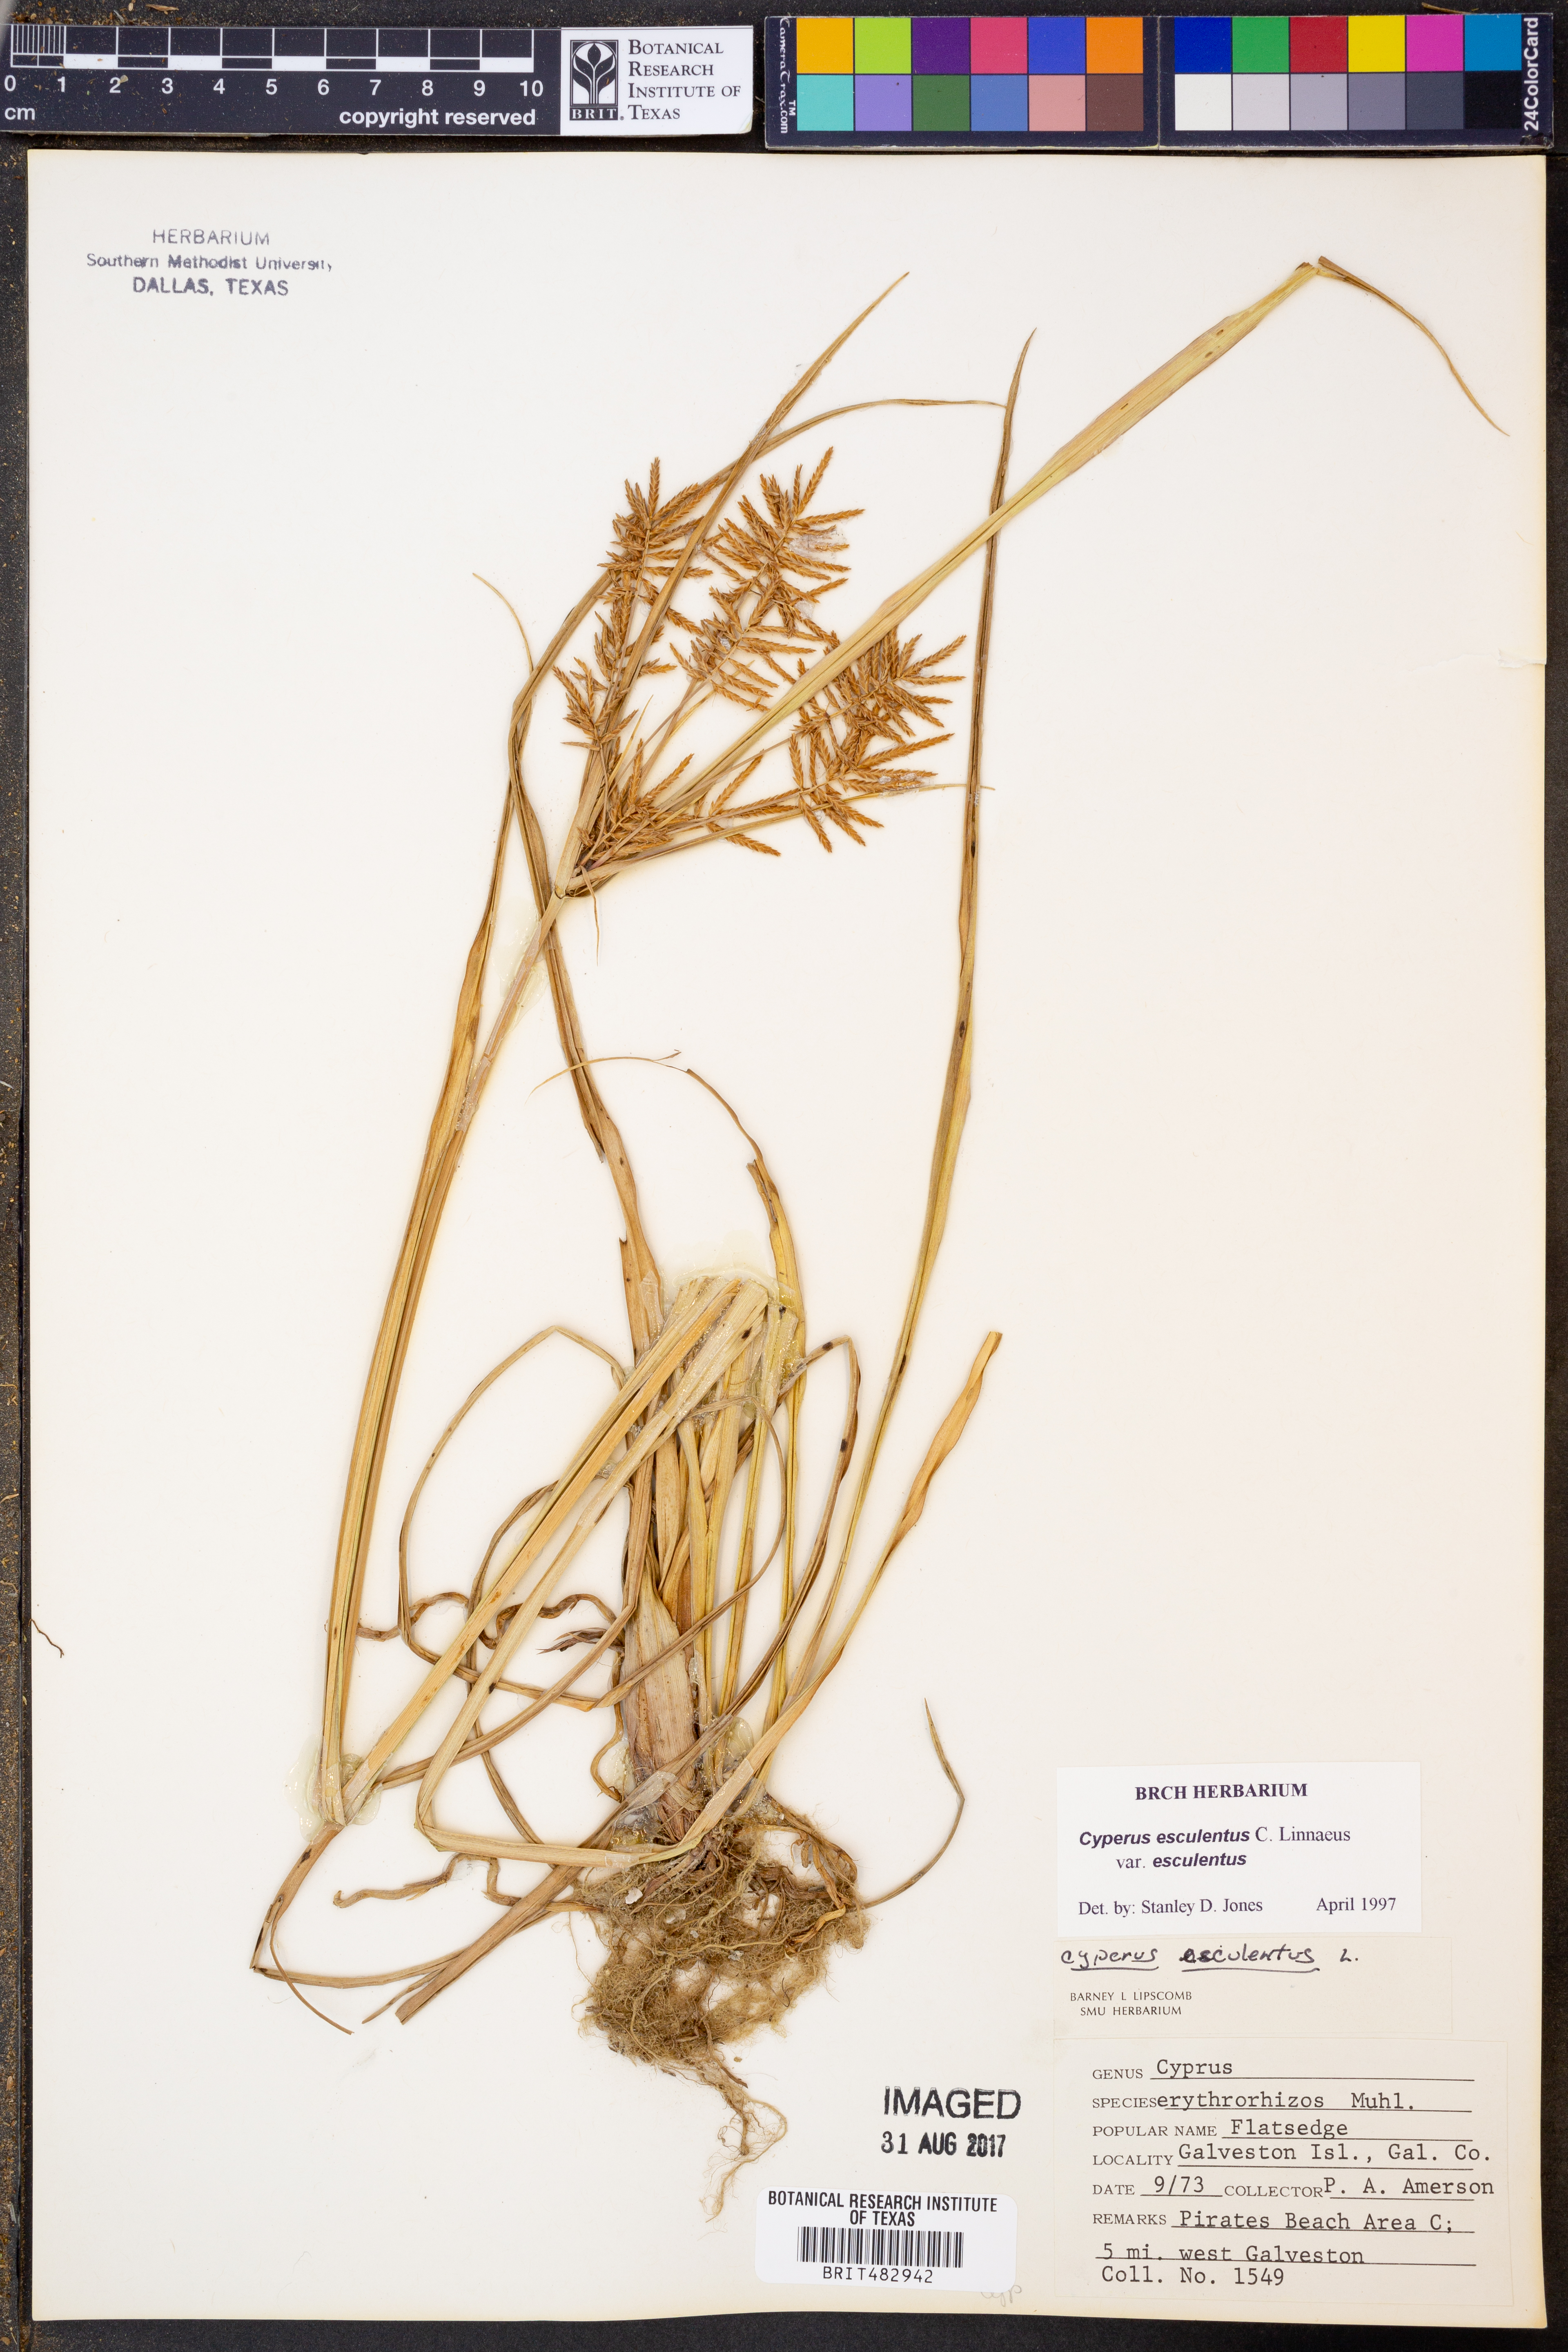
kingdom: Plantae
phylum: Tracheophyta
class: Liliopsida
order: Poales
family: Cyperaceae
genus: Cyperus
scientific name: Cyperus esculentus
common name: Yellow nutsedge
